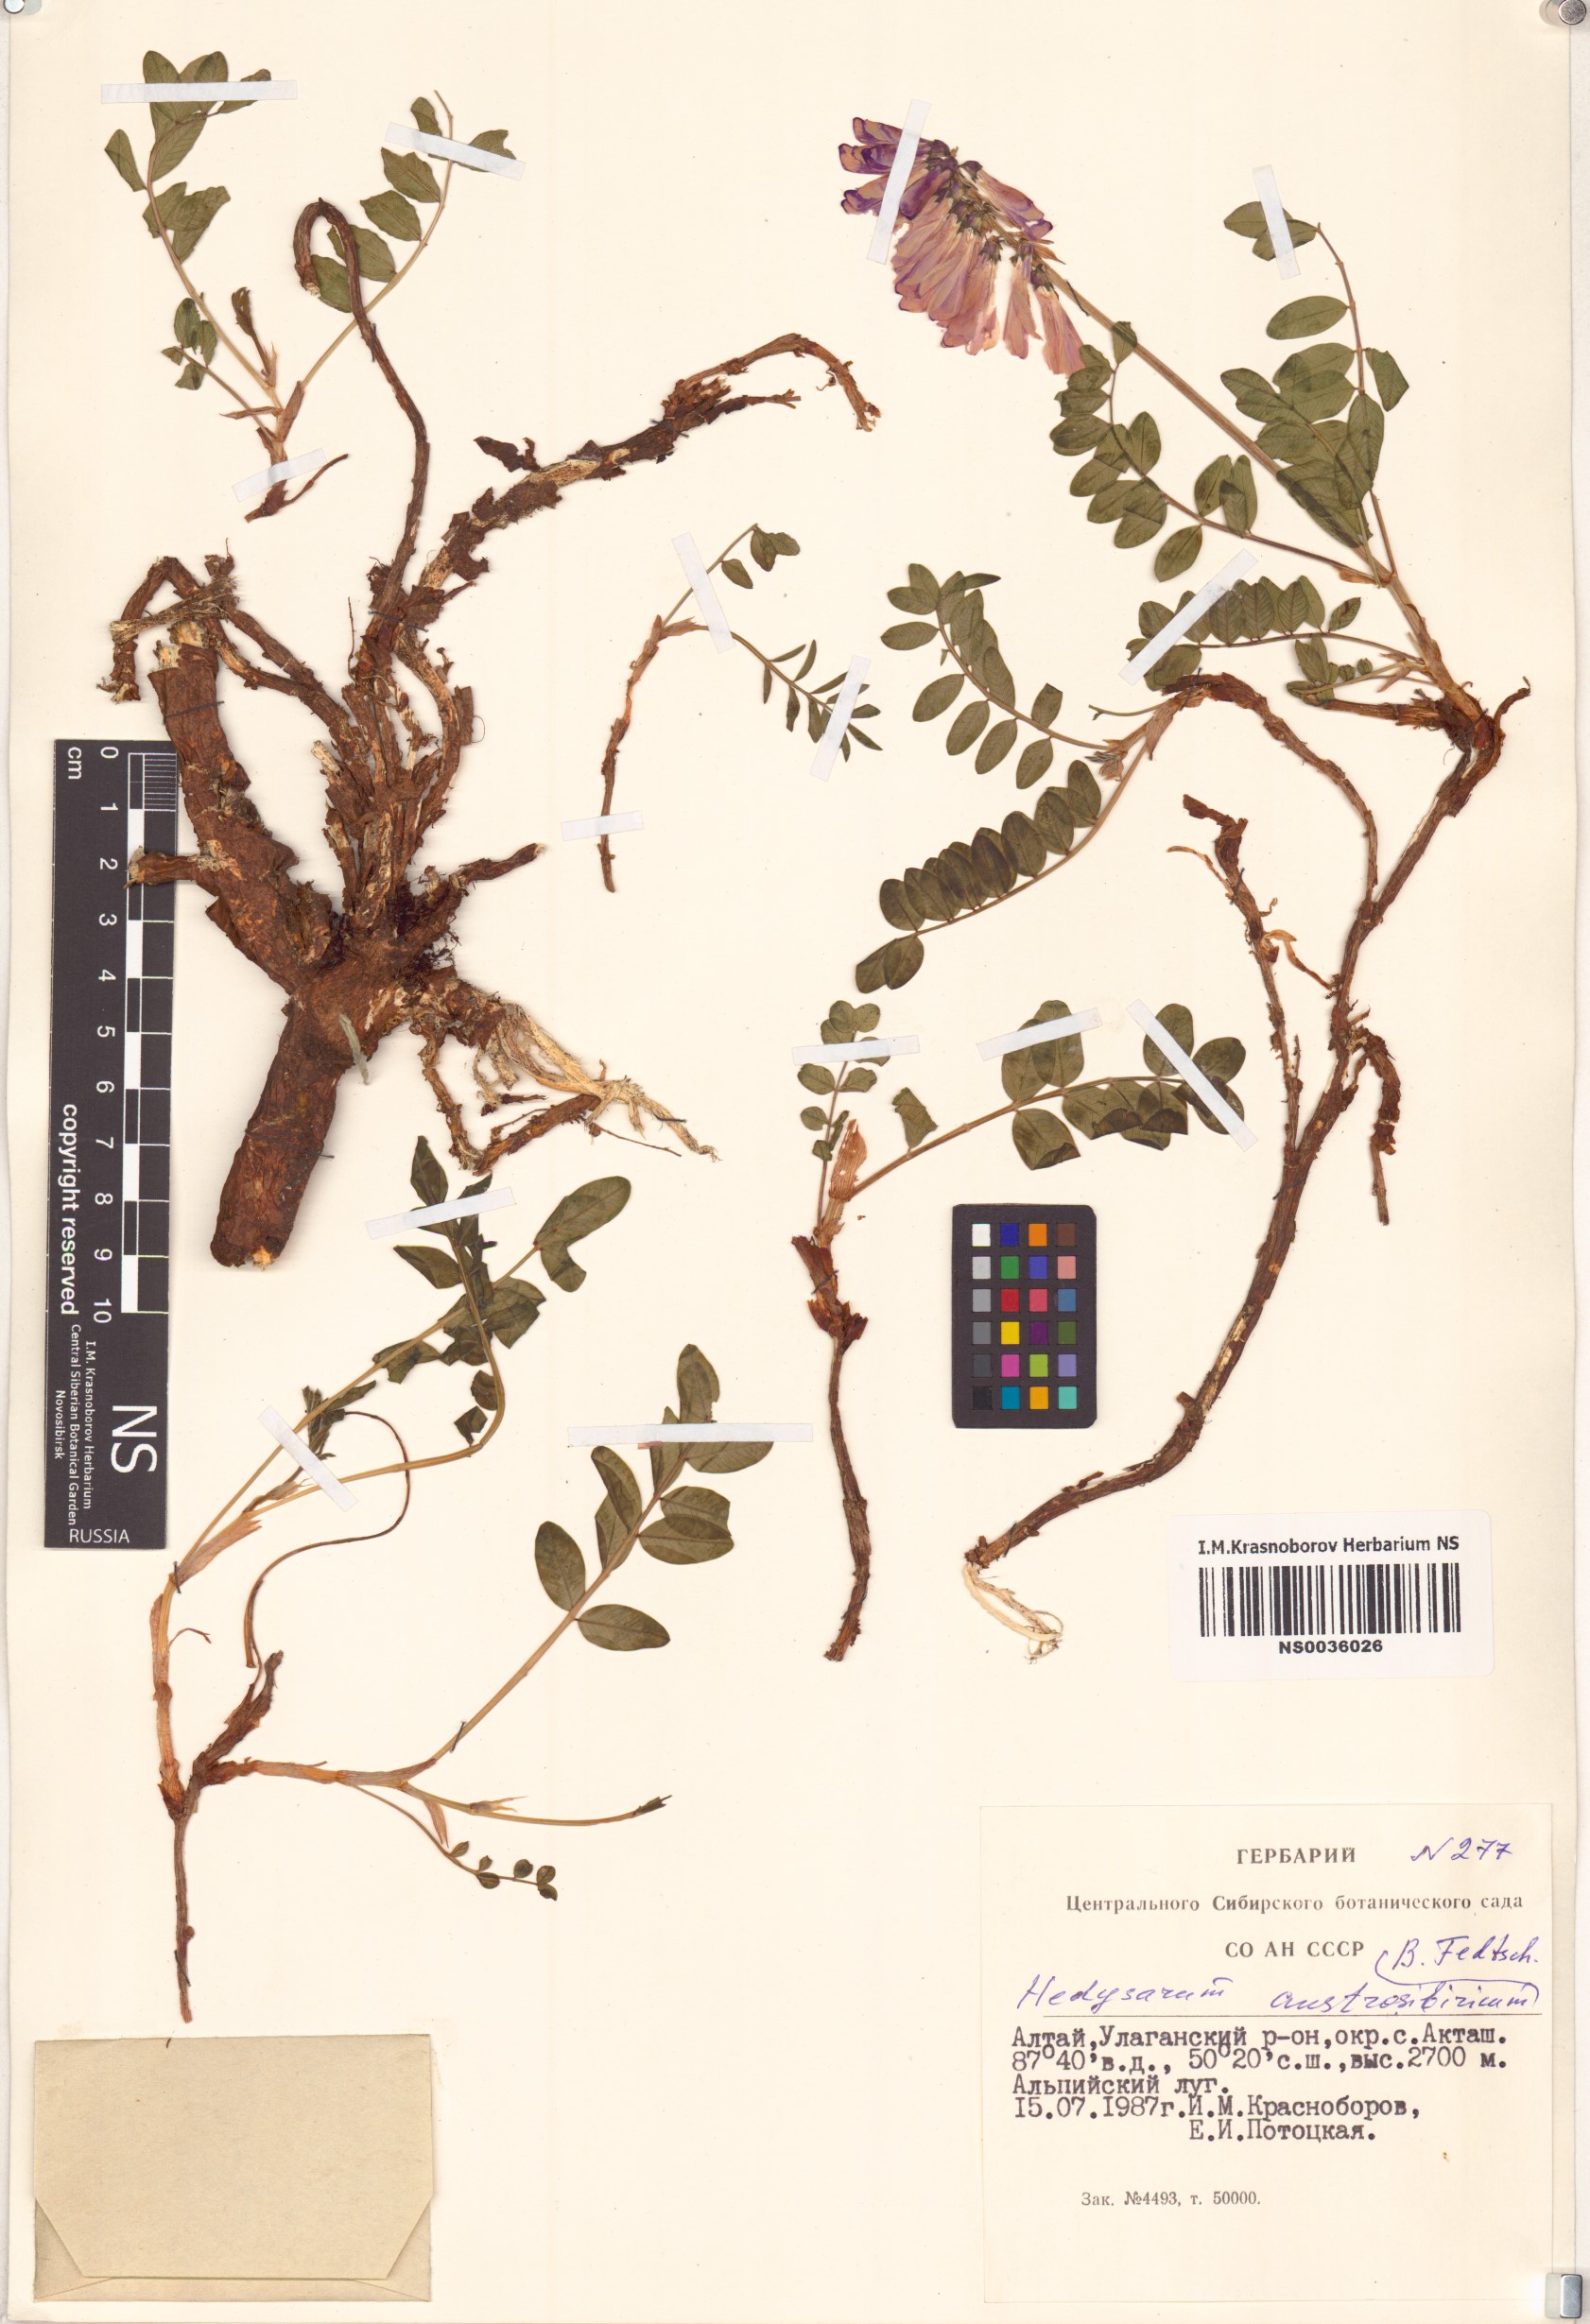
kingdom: Plantae
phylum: Tracheophyta
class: Magnoliopsida
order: Fabales
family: Fabaceae
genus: Hedysarum
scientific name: Hedysarum neglectum
